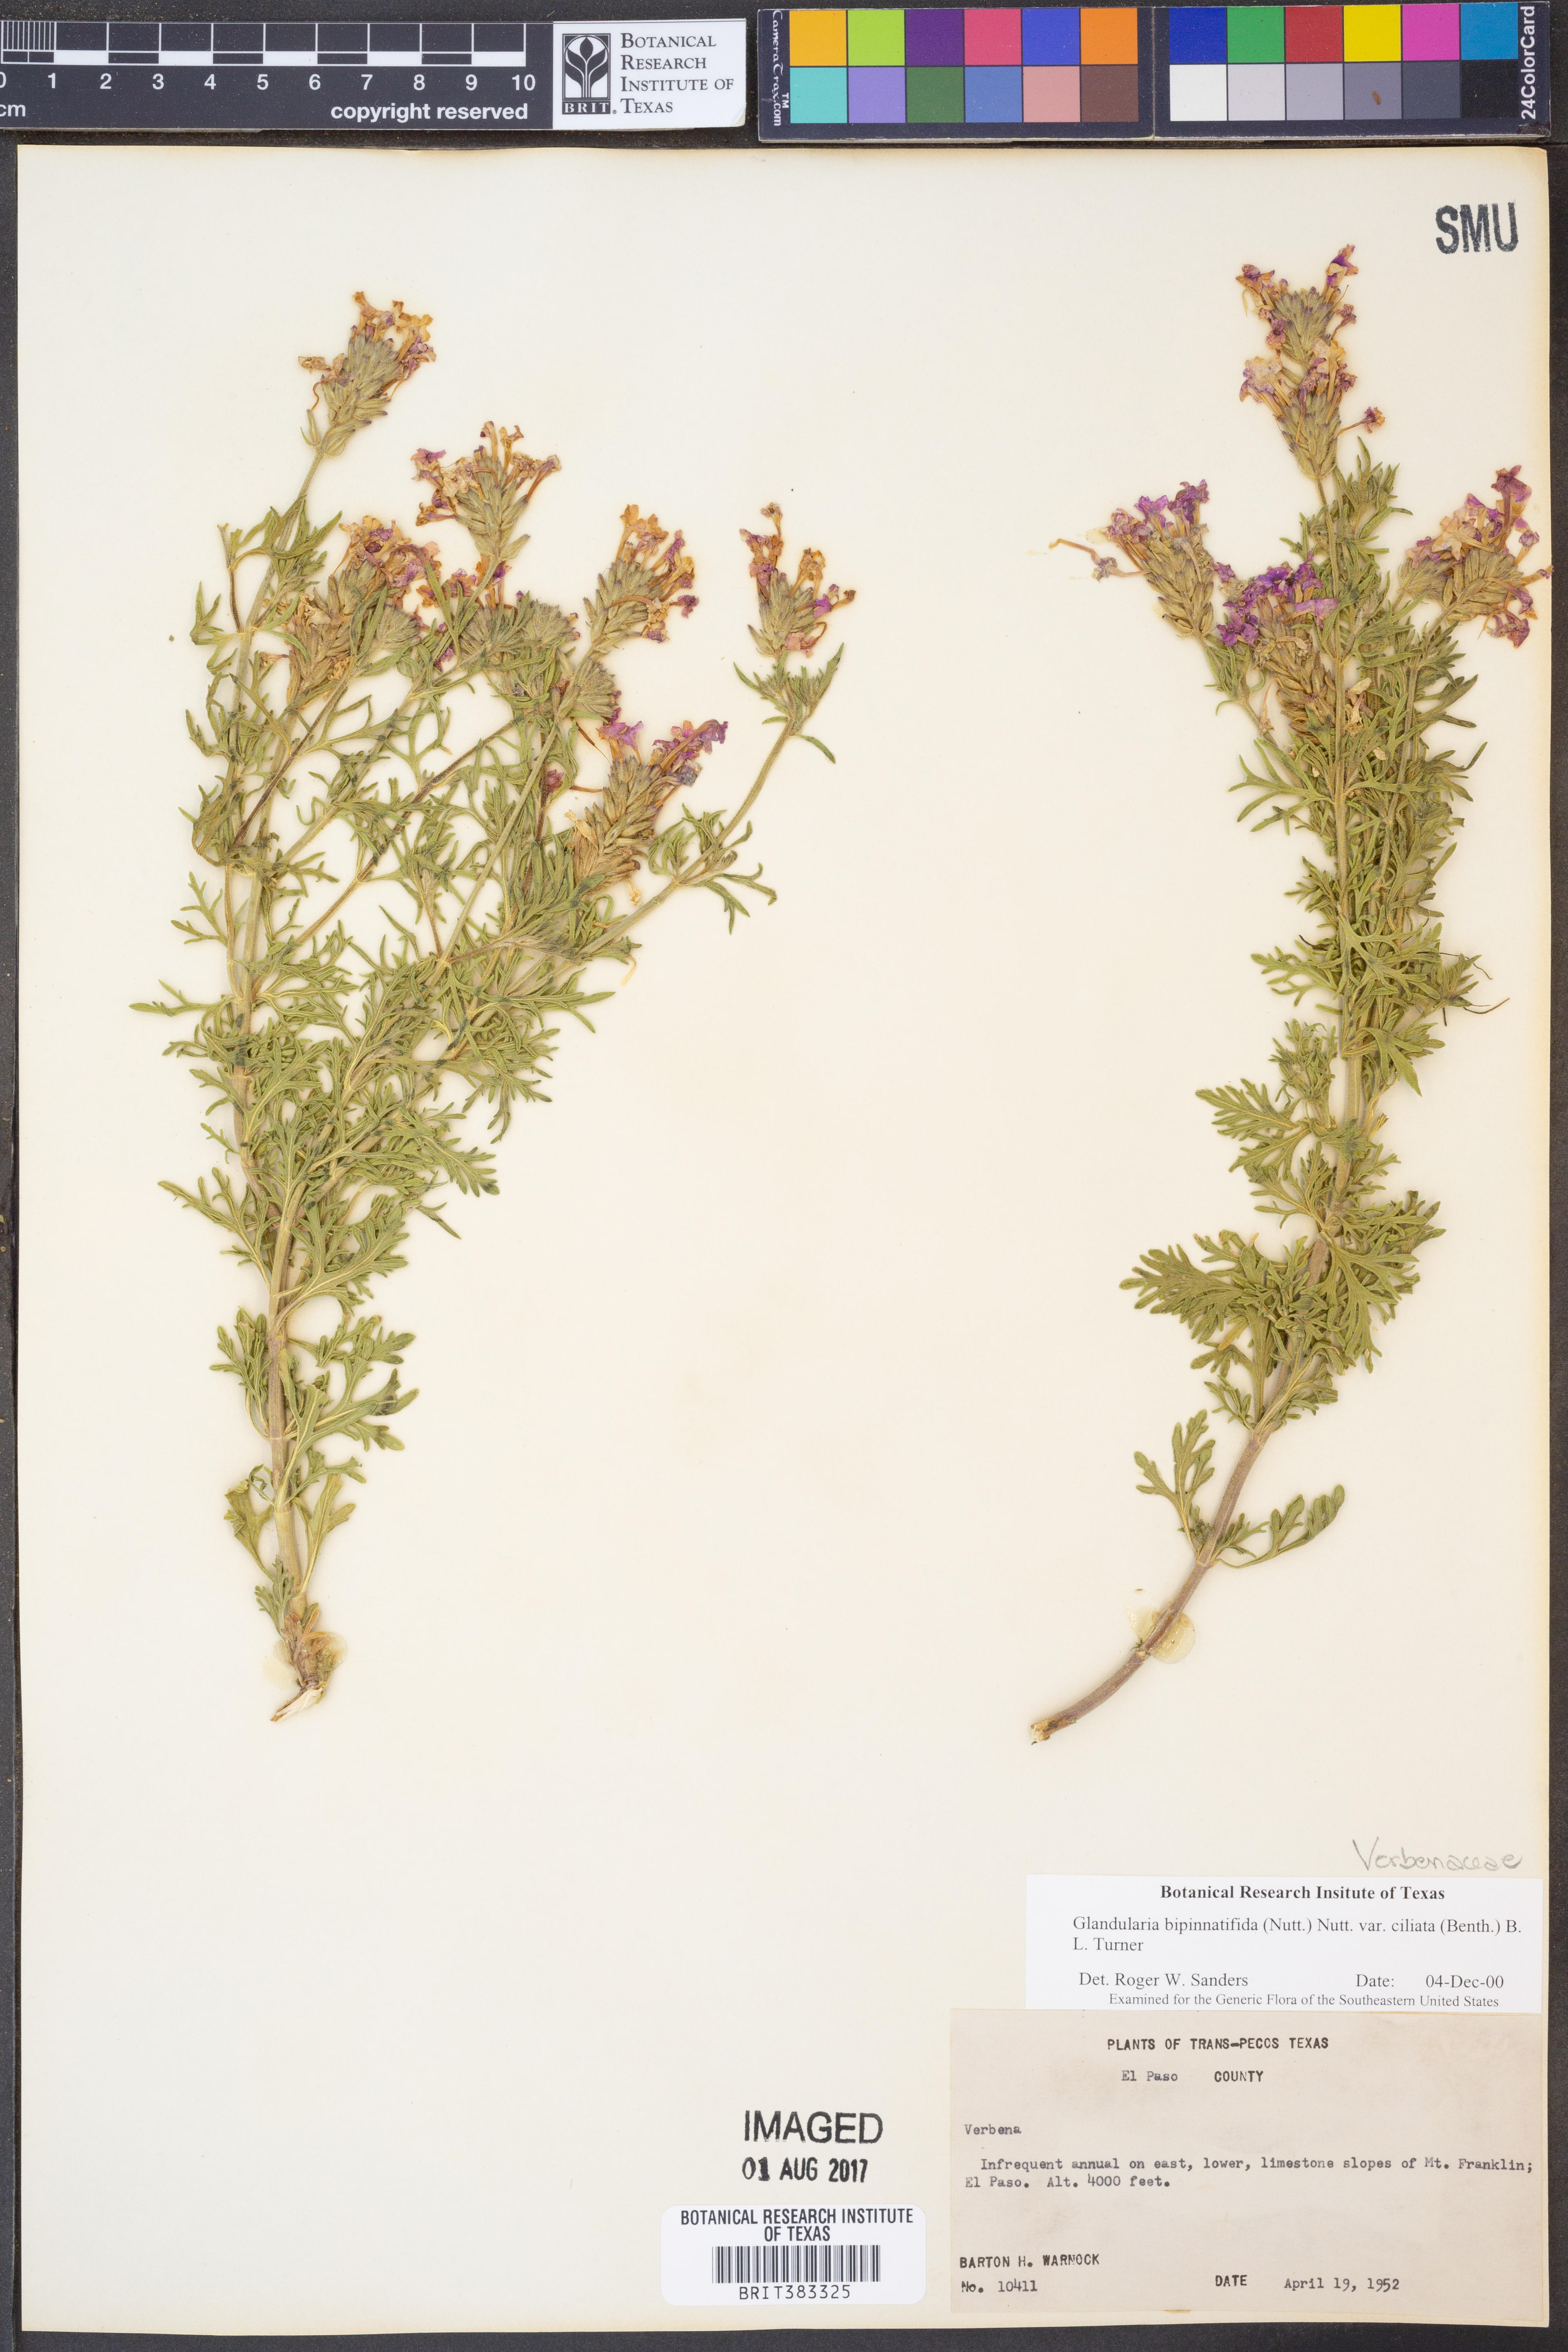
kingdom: Plantae
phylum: Tracheophyta
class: Magnoliopsida
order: Lamiales
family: Verbenaceae
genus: Verbena
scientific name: Verbena bipinnatifida
